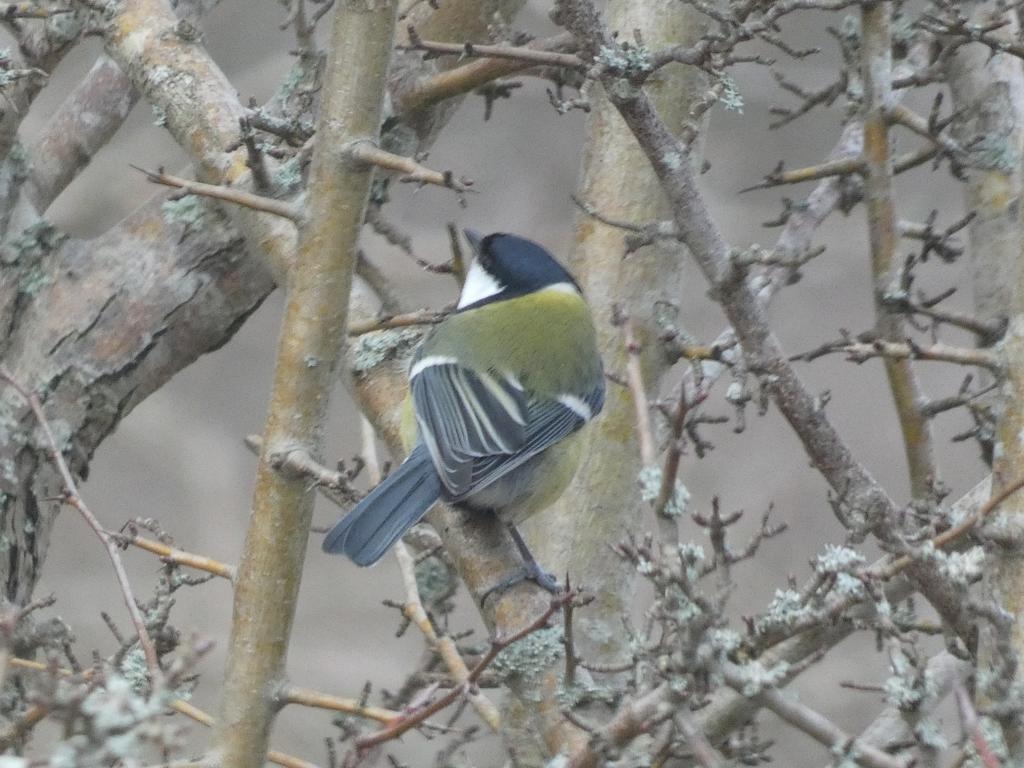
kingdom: Animalia
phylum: Chordata
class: Aves
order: Passeriformes
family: Paridae
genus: Parus
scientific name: Parus major
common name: Musvit
